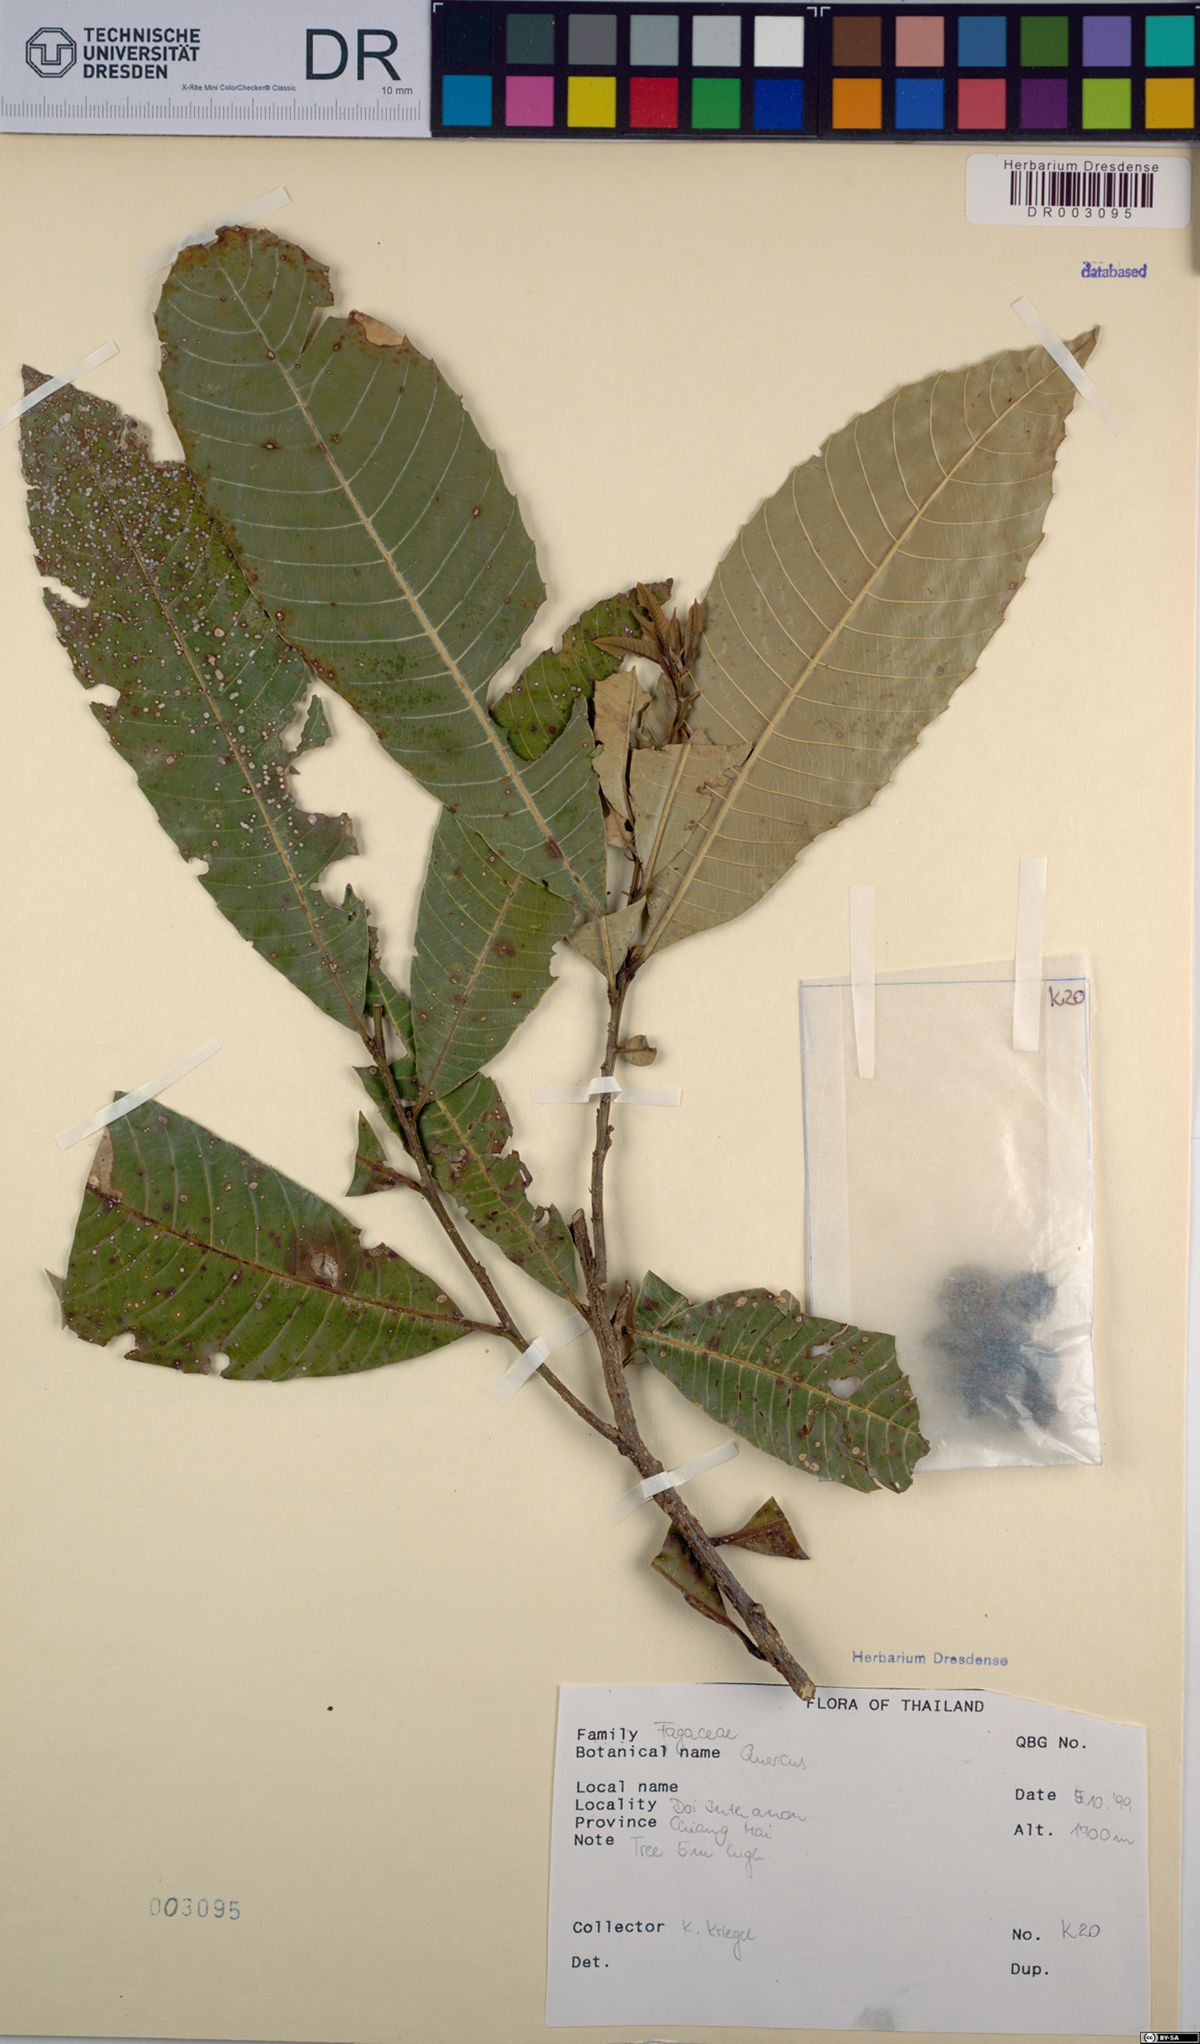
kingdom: Plantae
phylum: Tracheophyta
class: Magnoliopsida
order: Fagales
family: Fagaceae
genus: Quercus
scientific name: Quercus
